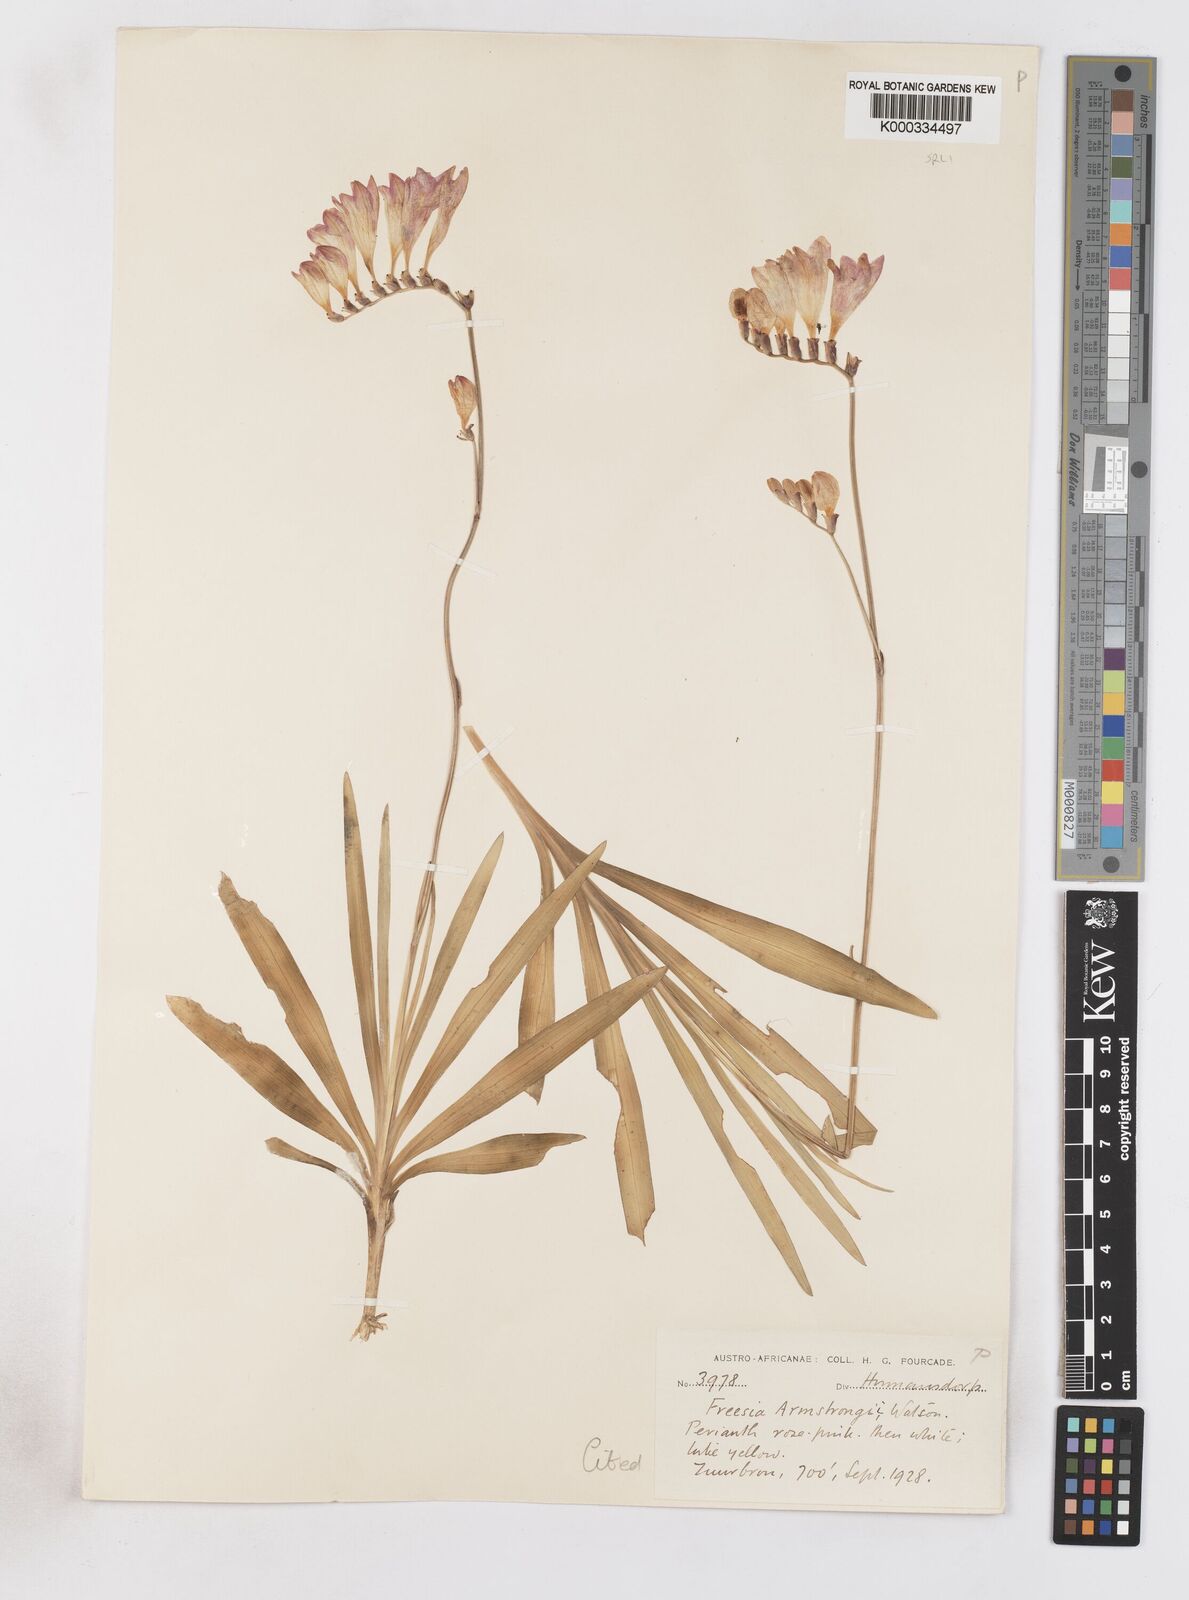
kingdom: Plantae
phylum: Tracheophyta
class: Liliopsida
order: Asparagales
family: Iridaceae
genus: Freesia
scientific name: Freesia corymbosa
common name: Common freesia
